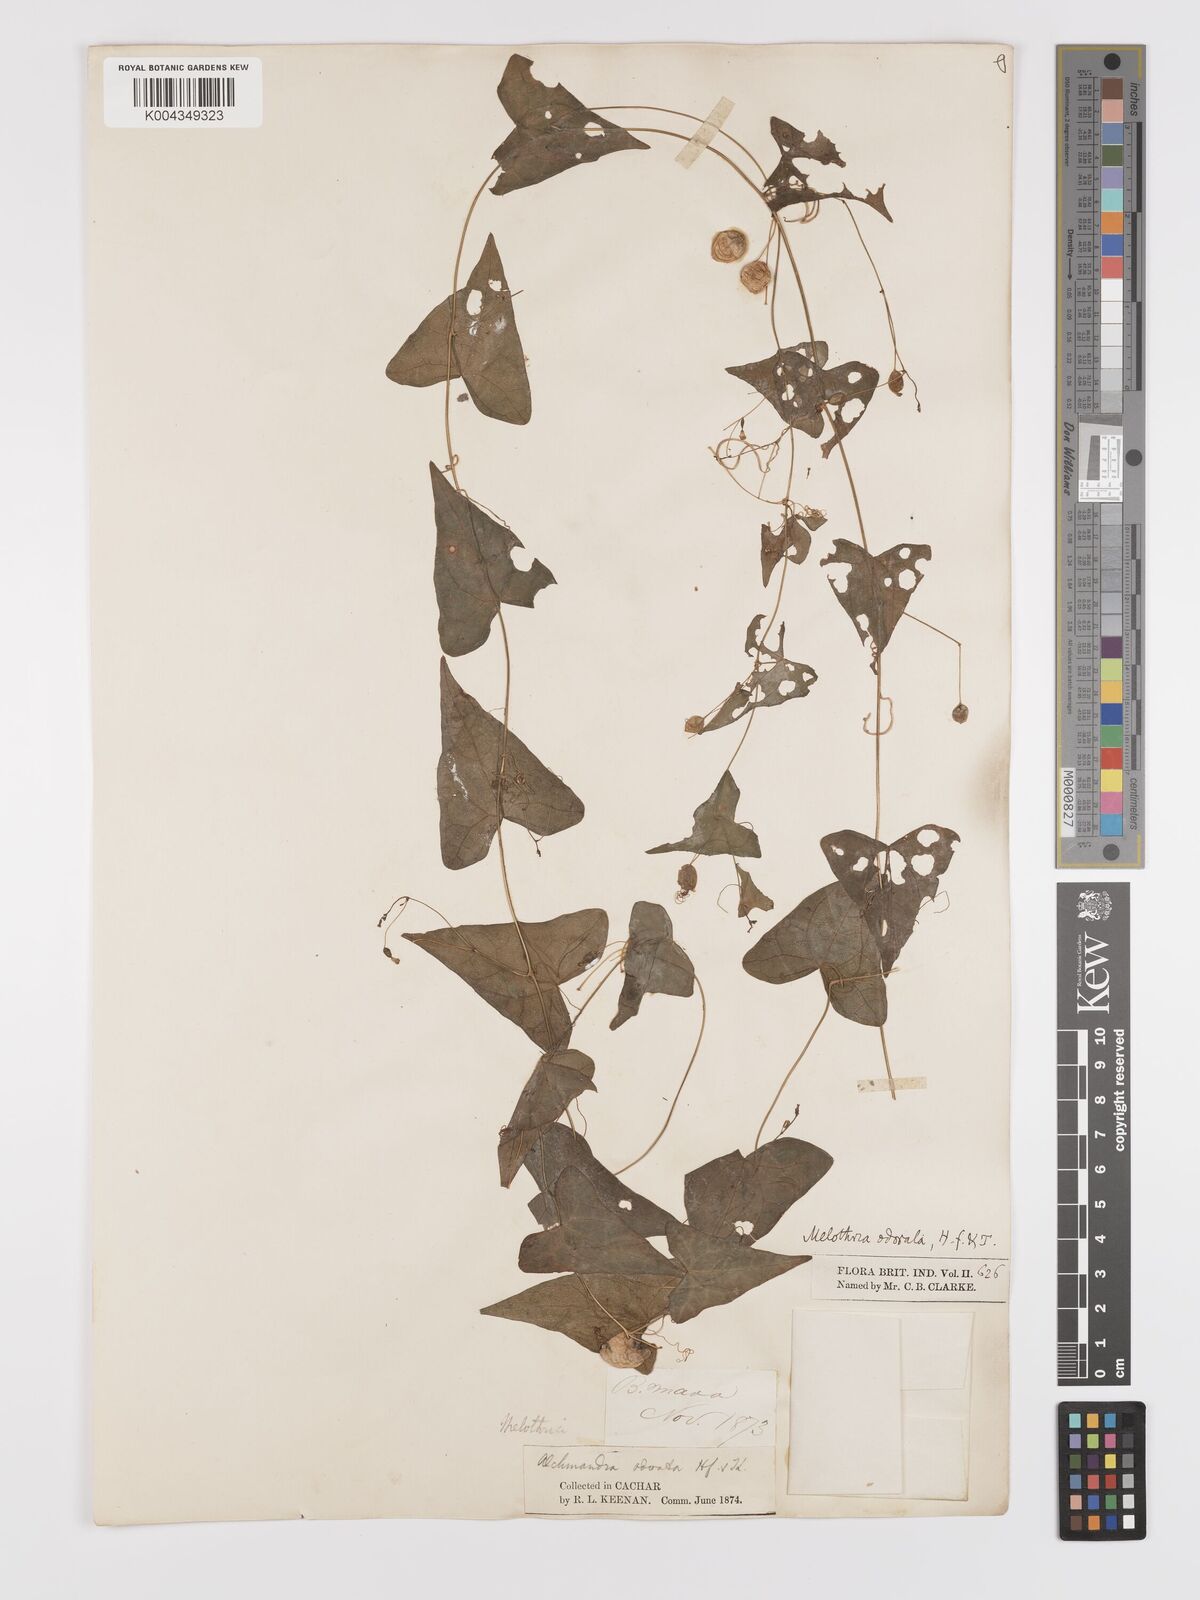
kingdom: Plantae
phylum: Tracheophyta
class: Magnoliopsida
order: Cucurbitales
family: Cucurbitaceae
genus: Zehneria
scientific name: Zehneria odorata
